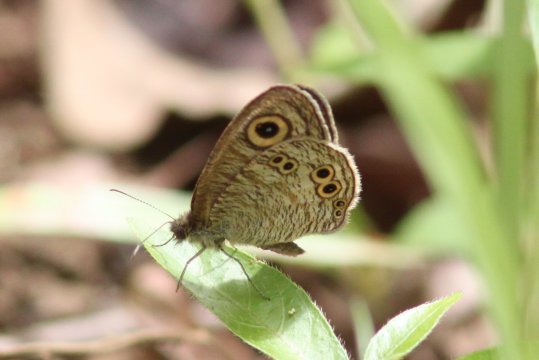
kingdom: Animalia
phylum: Arthropoda
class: Insecta
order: Lepidoptera
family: Nymphalidae
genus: Ypthima
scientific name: Ypthima stellera
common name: Philippine Five-Ring
